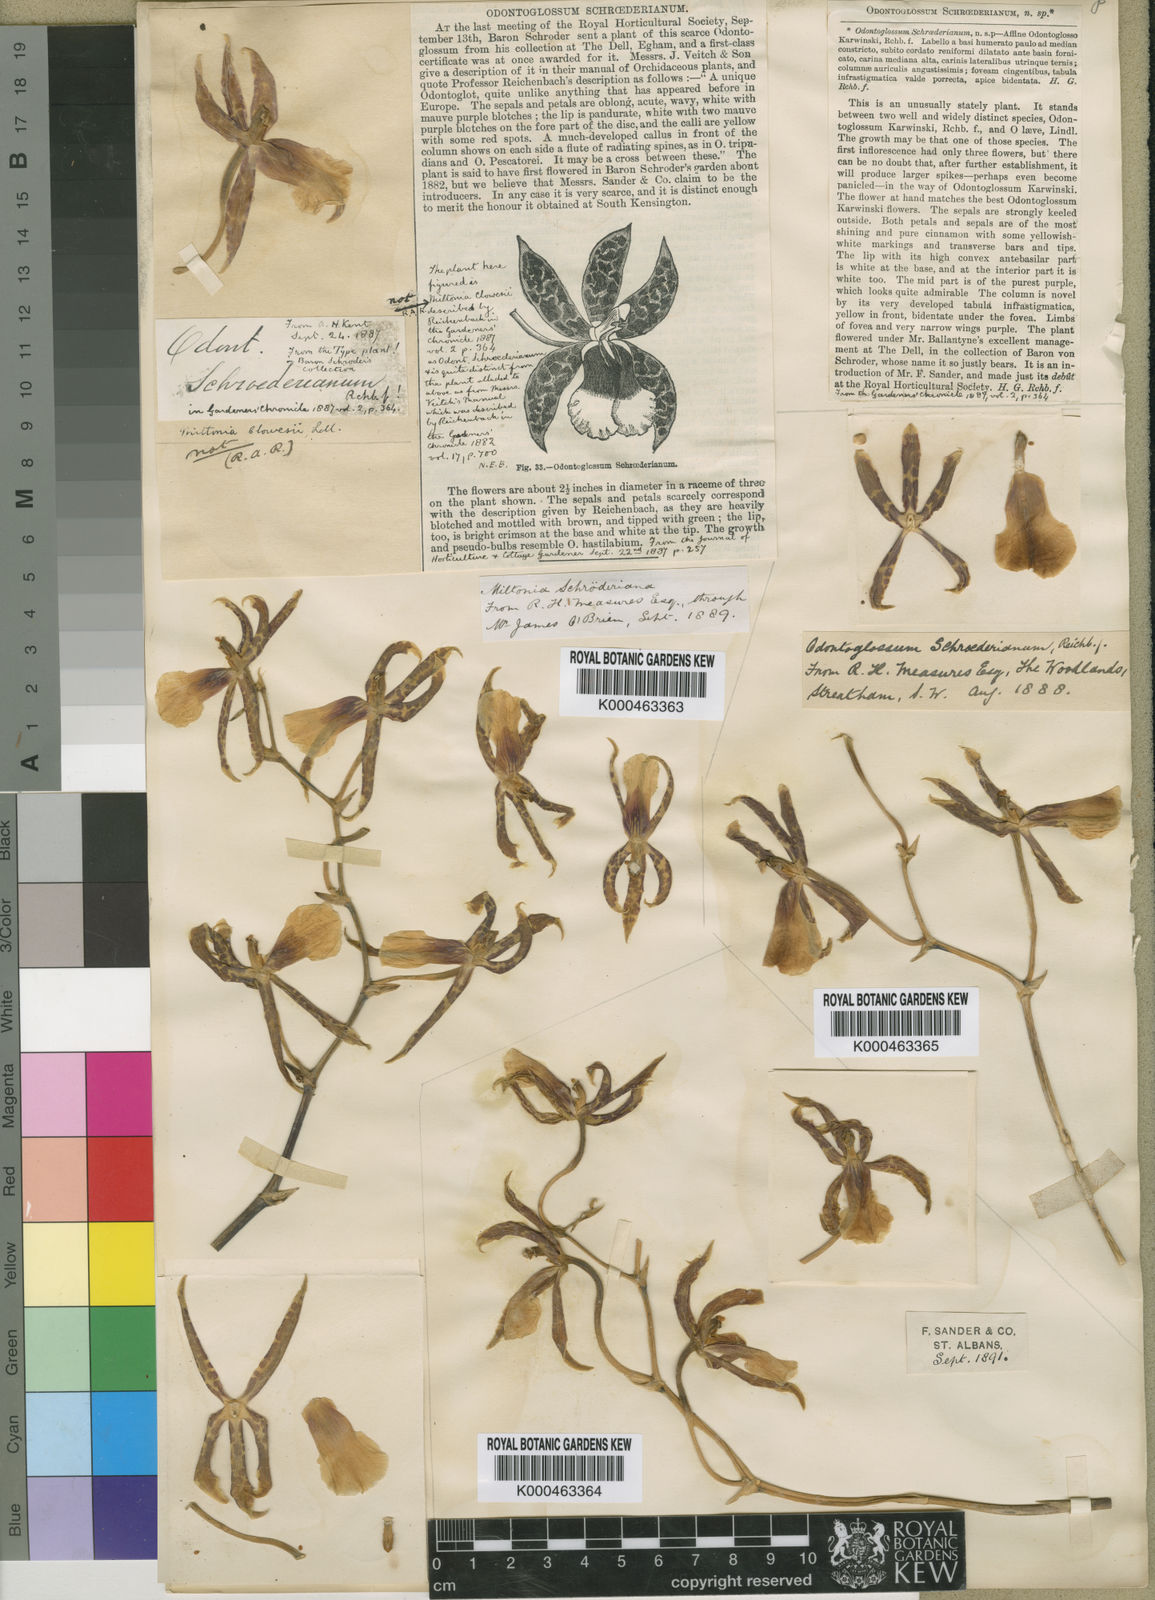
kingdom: Plantae
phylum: Tracheophyta
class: Liliopsida
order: Asparagales
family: Orchidaceae
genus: Oncidium
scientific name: Oncidium schroederianum
